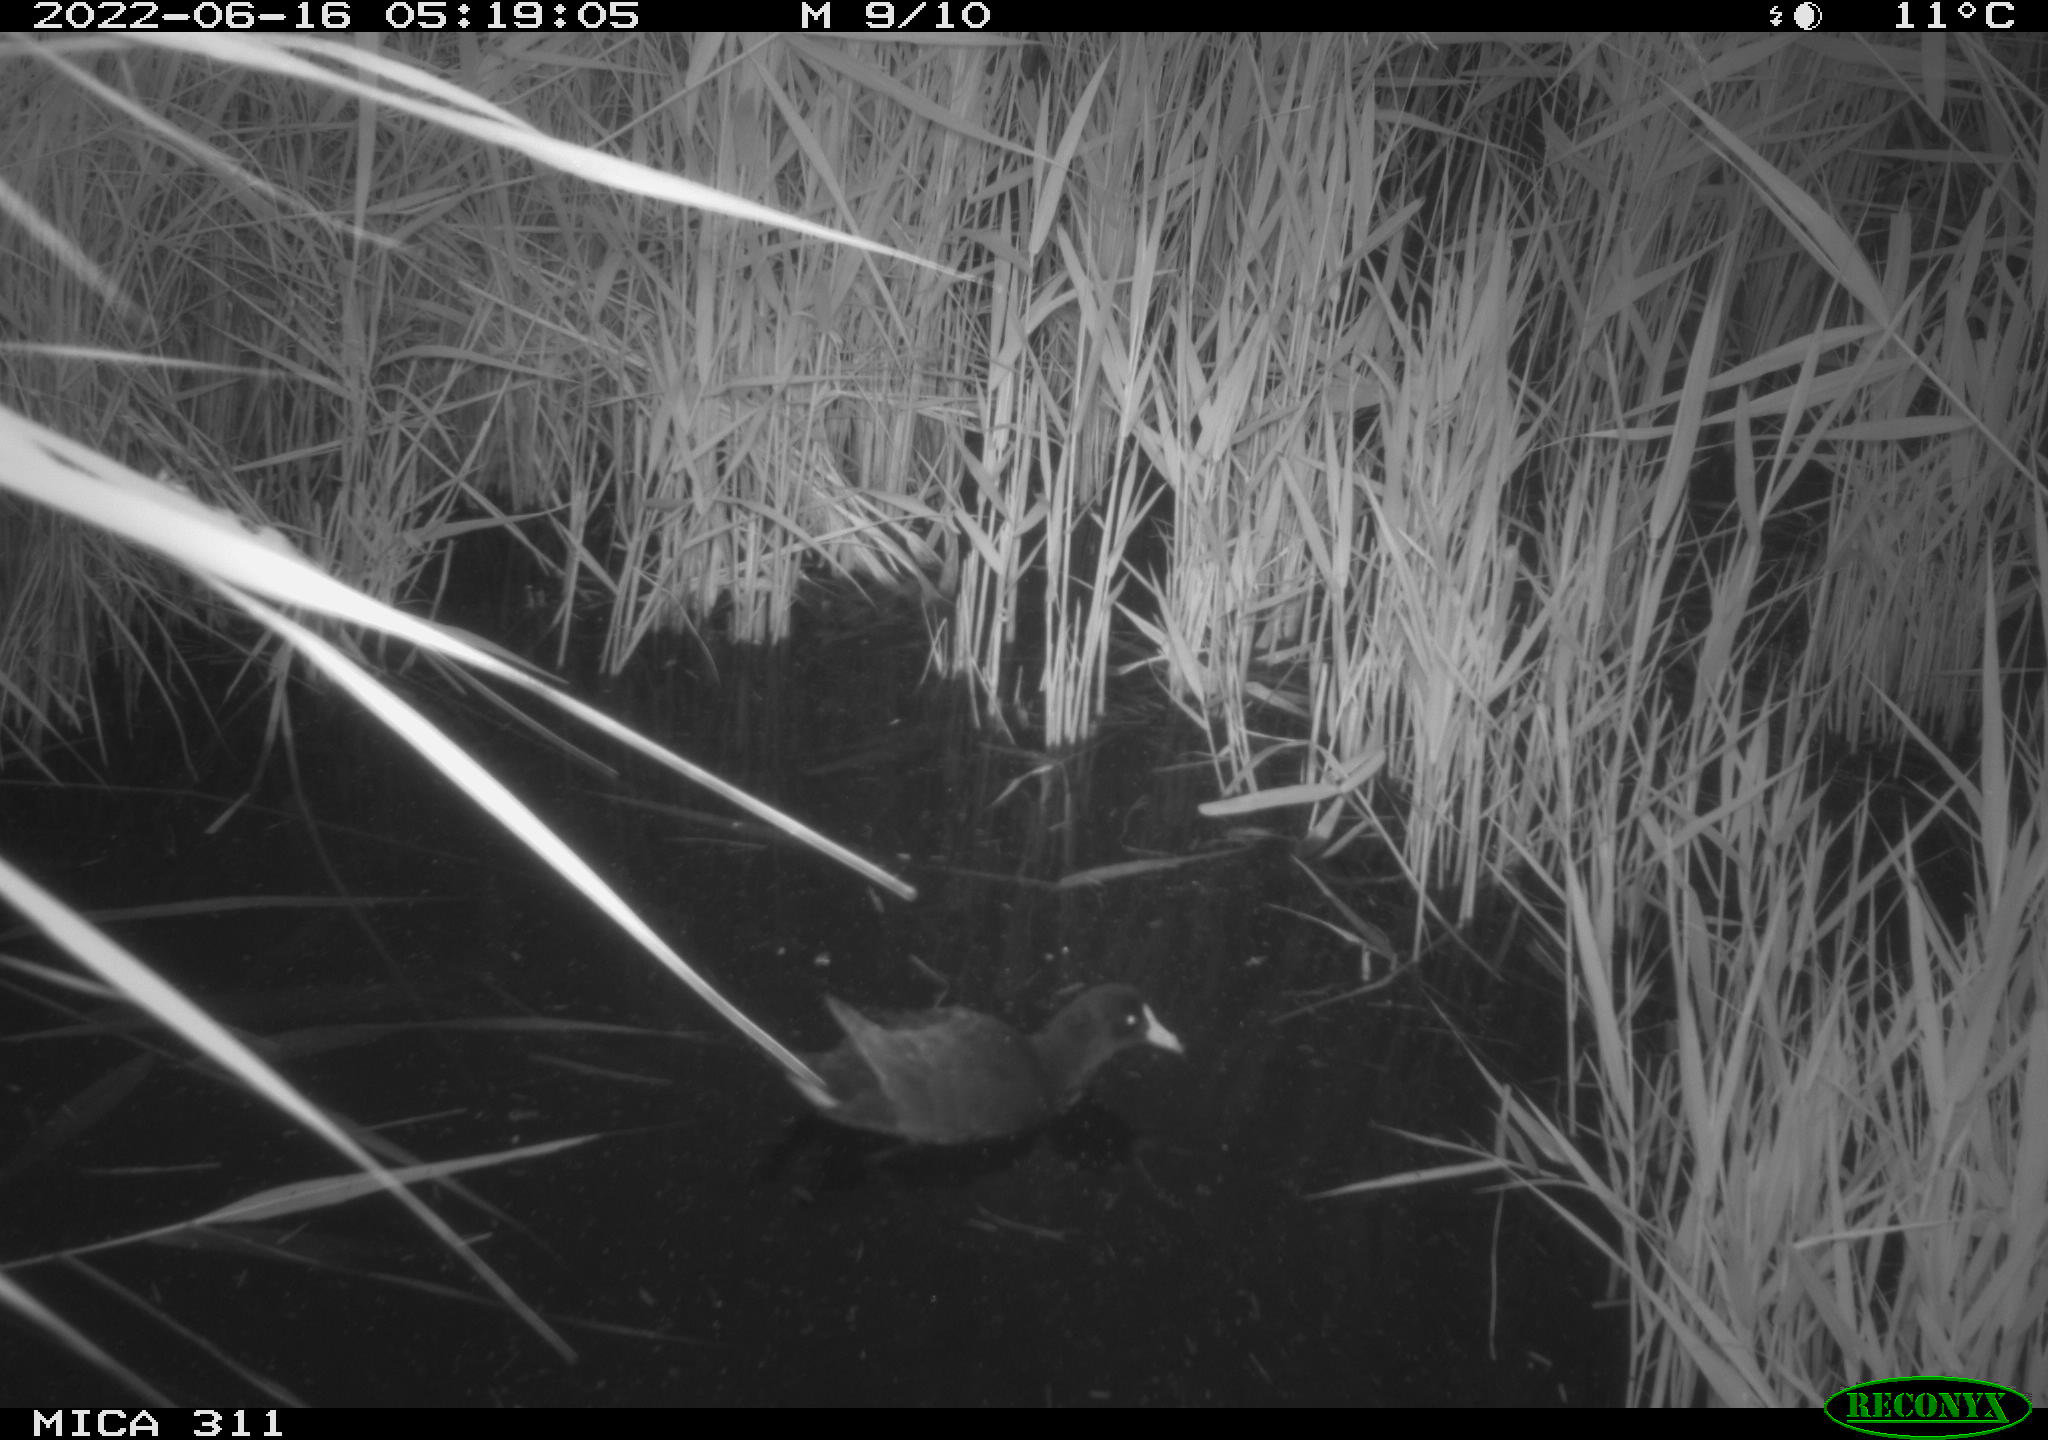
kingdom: Animalia
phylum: Chordata
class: Aves
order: Gruiformes
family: Rallidae
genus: Gallinula
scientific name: Gallinula chloropus
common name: Common moorhen
